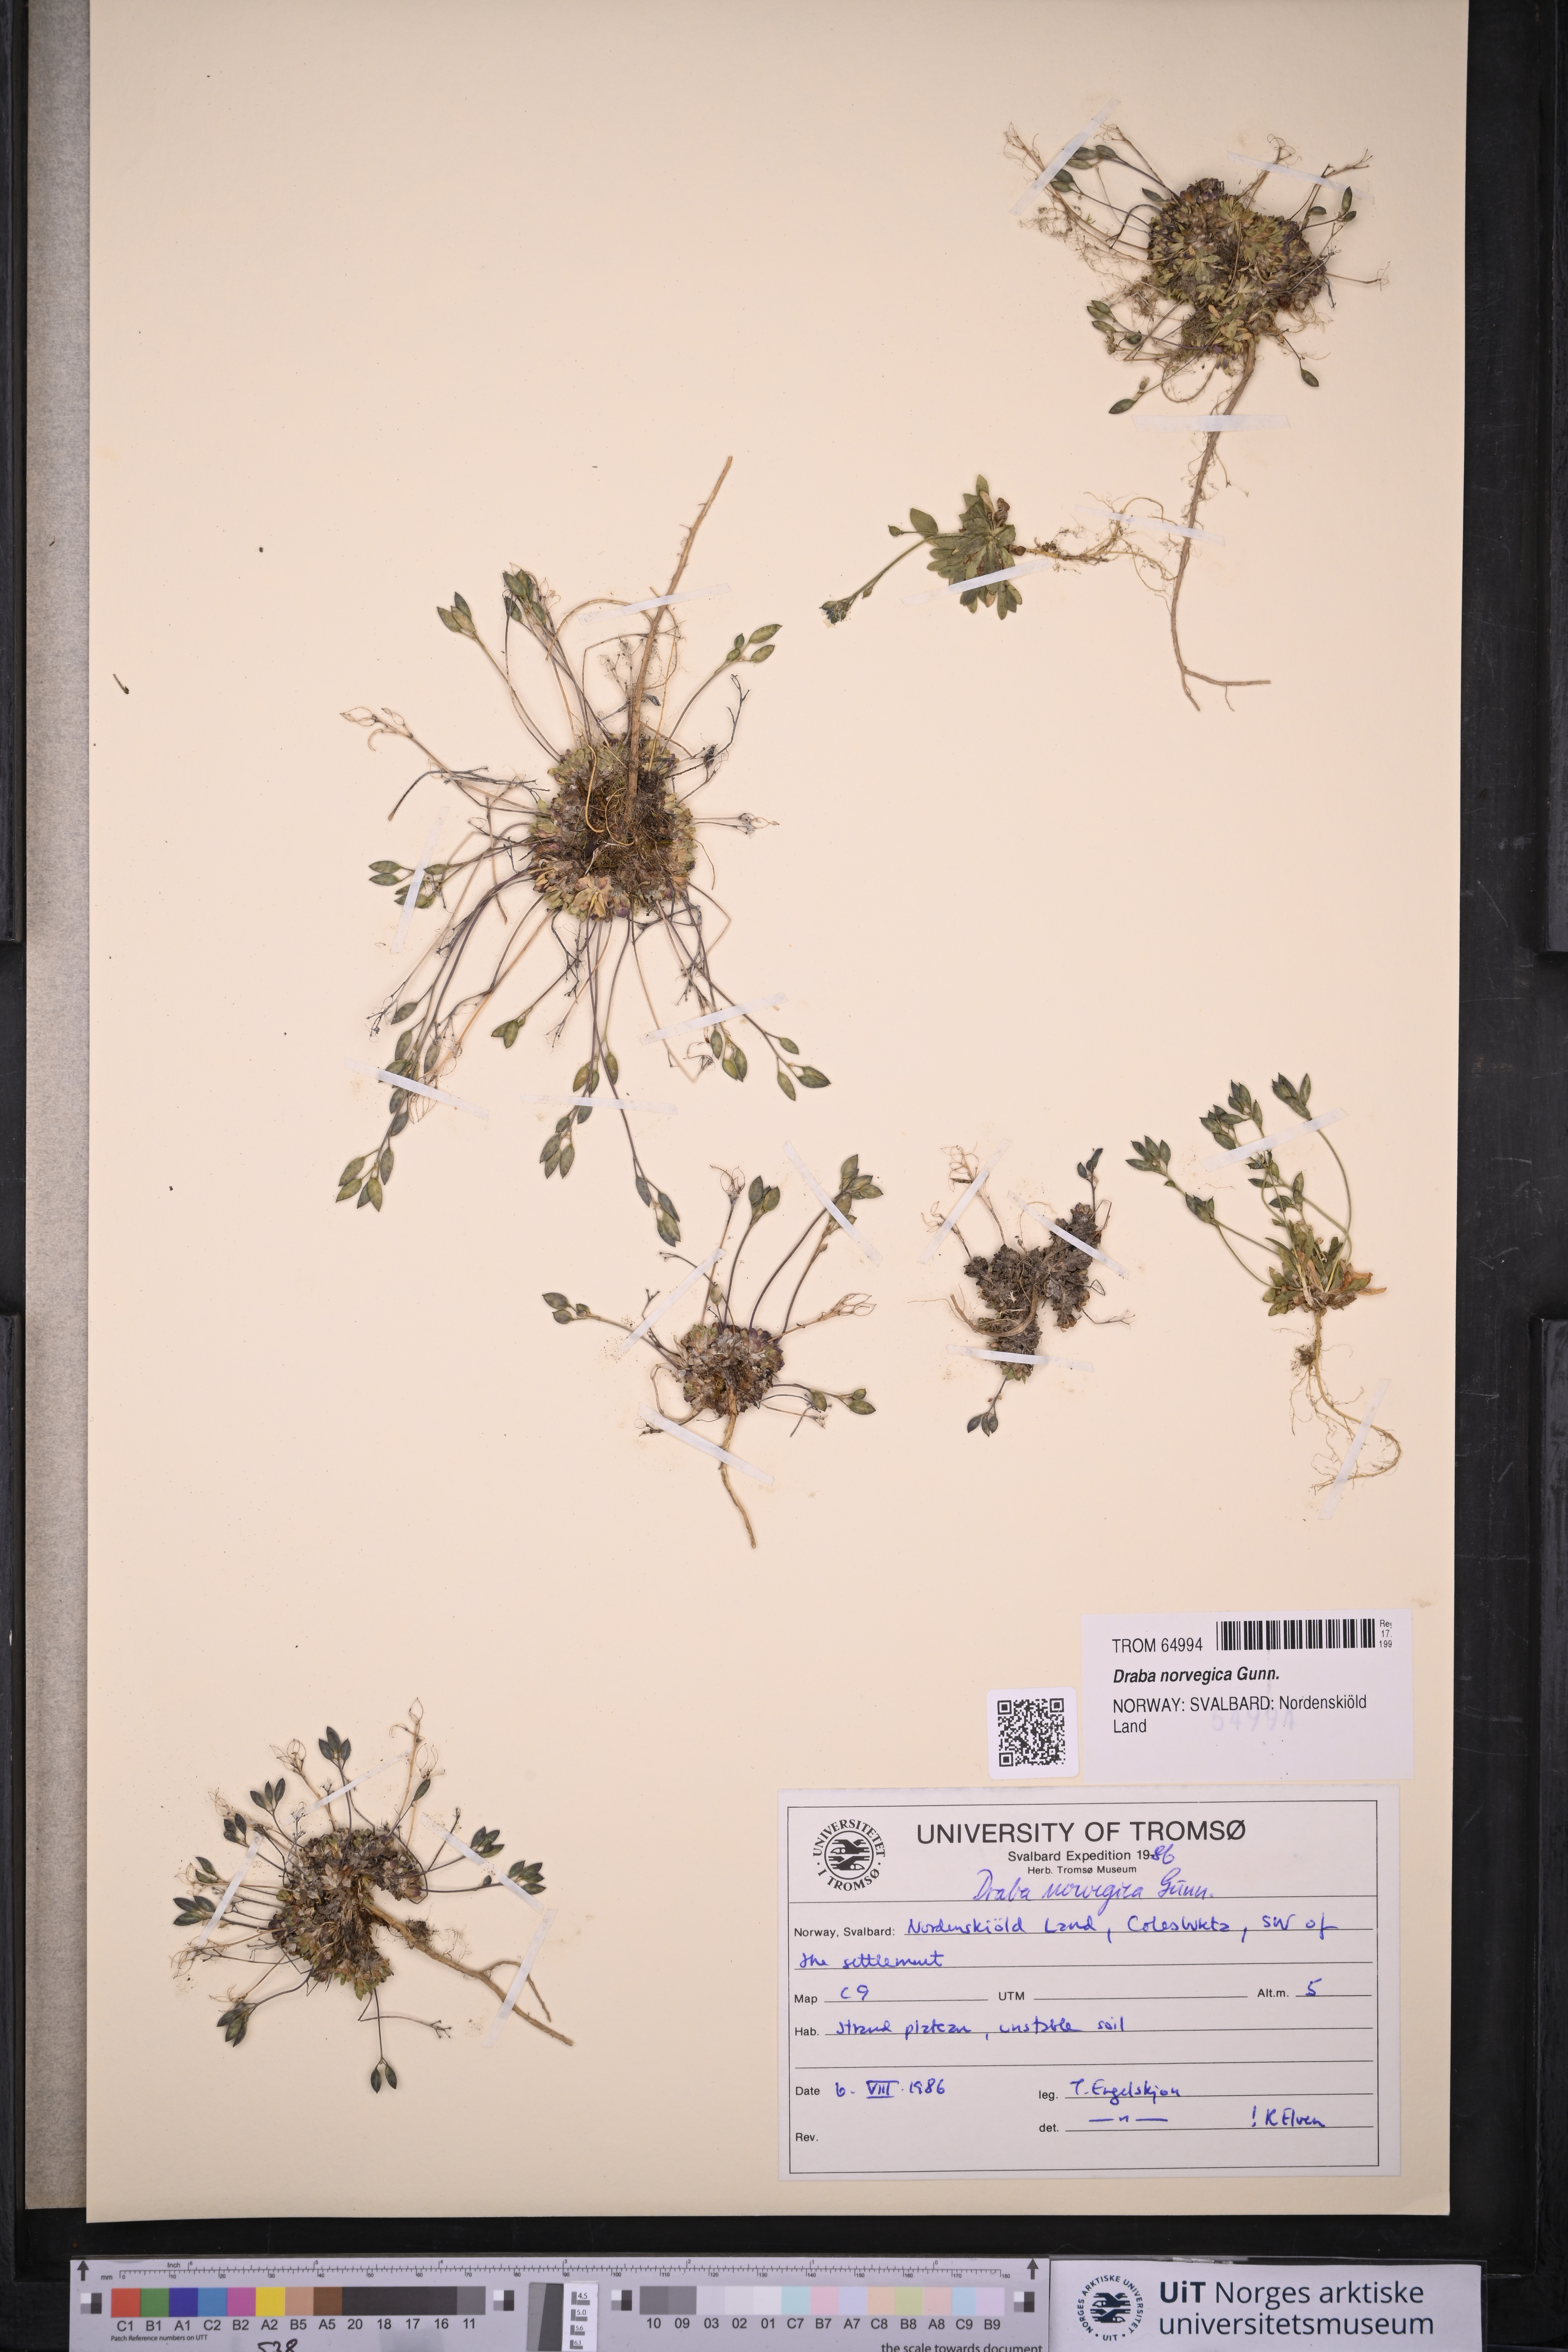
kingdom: Plantae
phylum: Tracheophyta
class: Magnoliopsida
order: Brassicales
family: Brassicaceae
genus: Draba
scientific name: Draba norvegica
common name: Rock whitlowgrass
